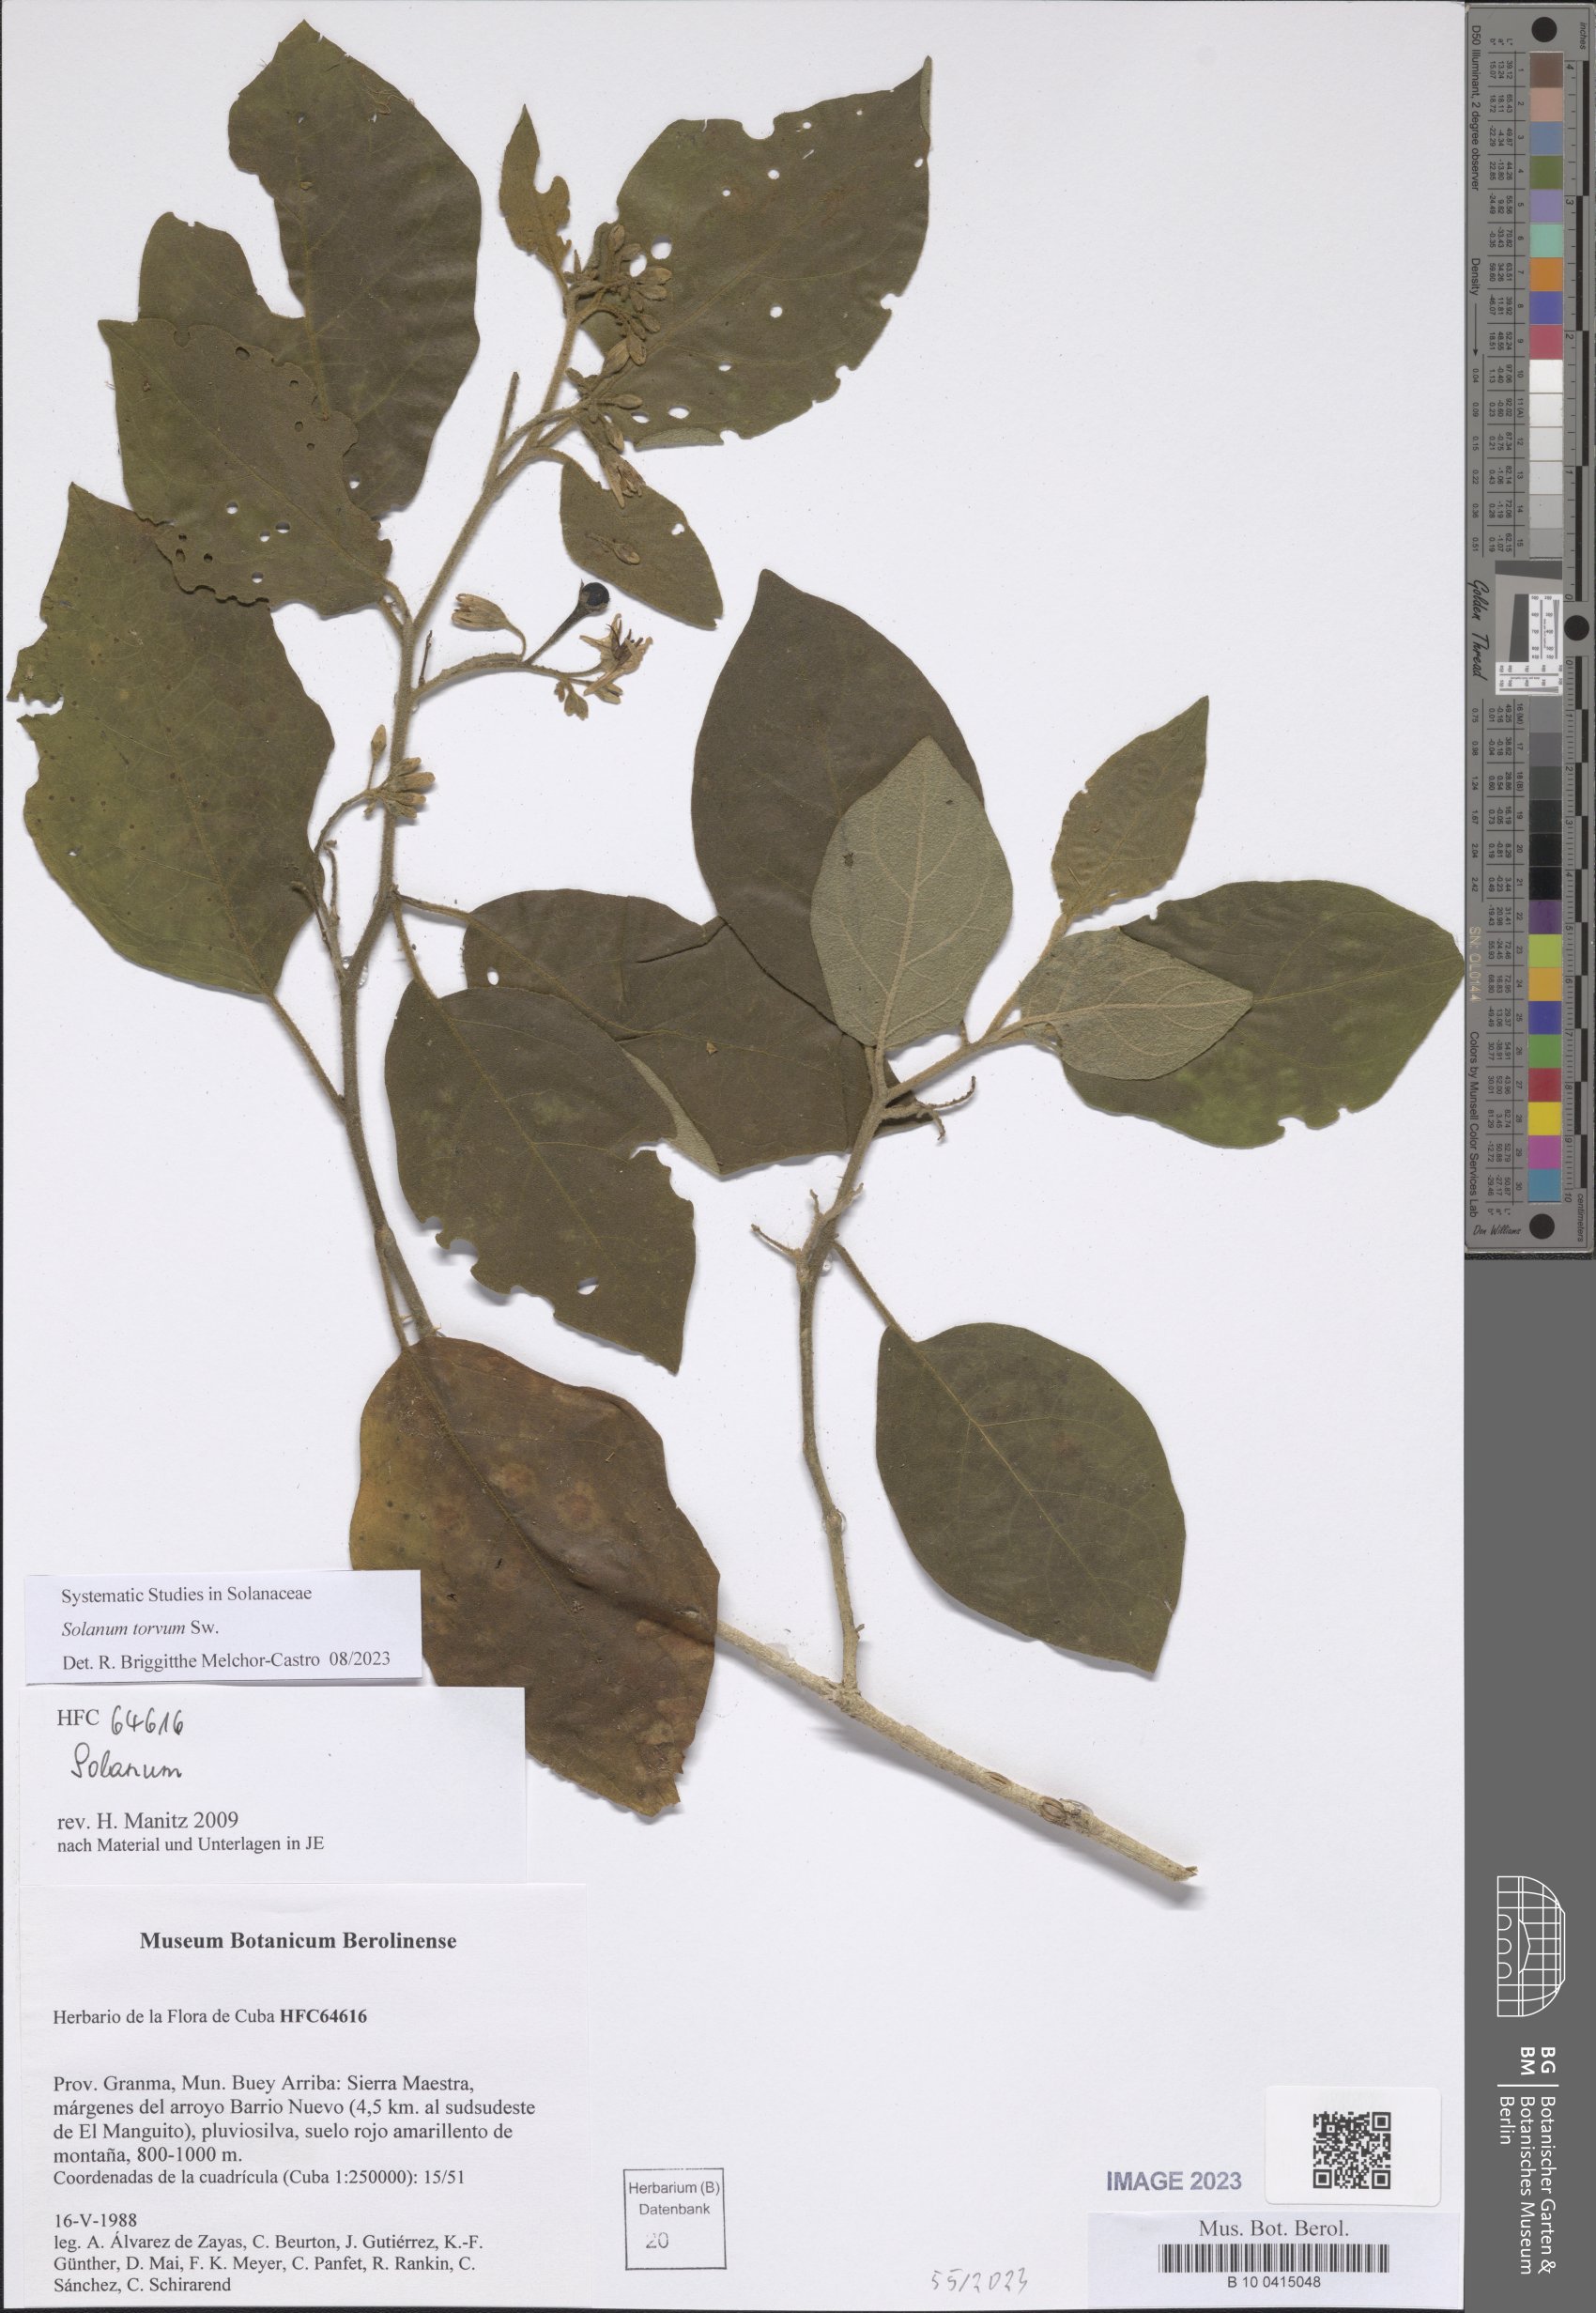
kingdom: Plantae
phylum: Tracheophyta
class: Magnoliopsida
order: Solanales
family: Solanaceae
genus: Solanum
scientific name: Solanum torvum
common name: Turkey berry
